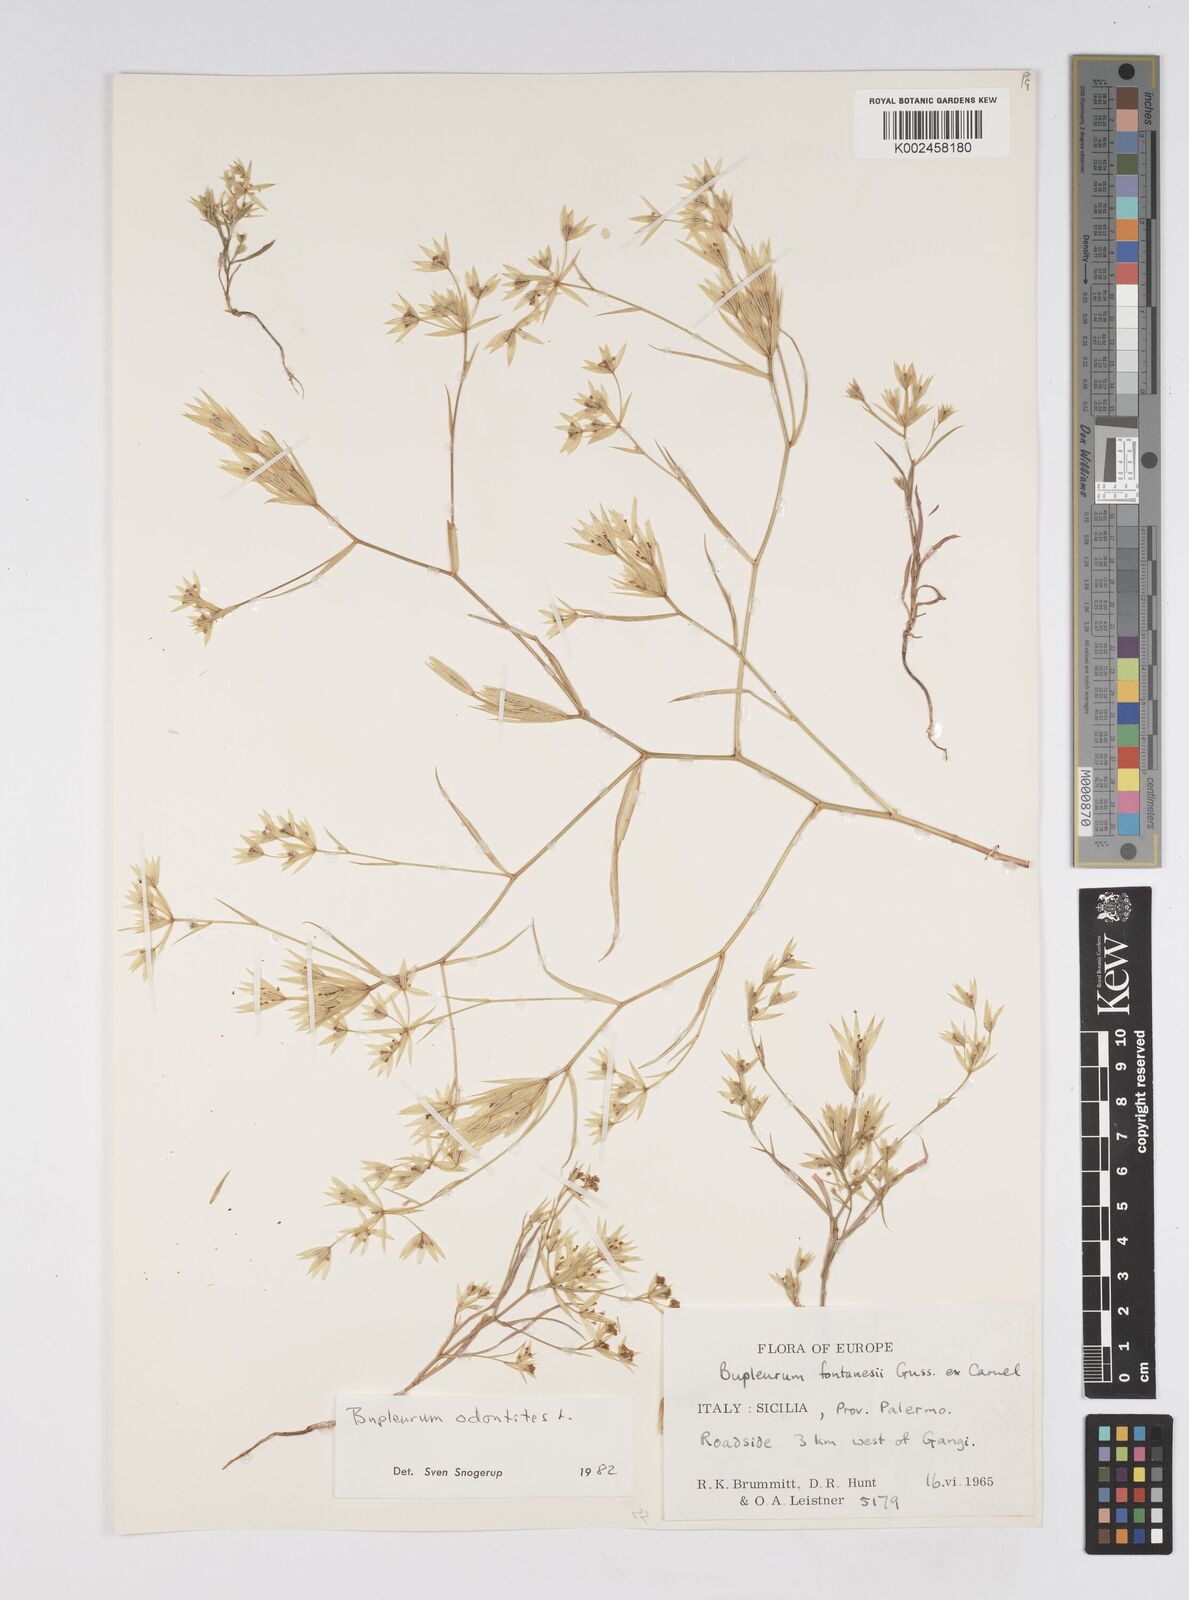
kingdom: Plantae
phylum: Tracheophyta
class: Magnoliopsida
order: Apiales
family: Apiaceae
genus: Bupleurum
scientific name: Bupleurum odontites
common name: Narrowleaf thorow wax
